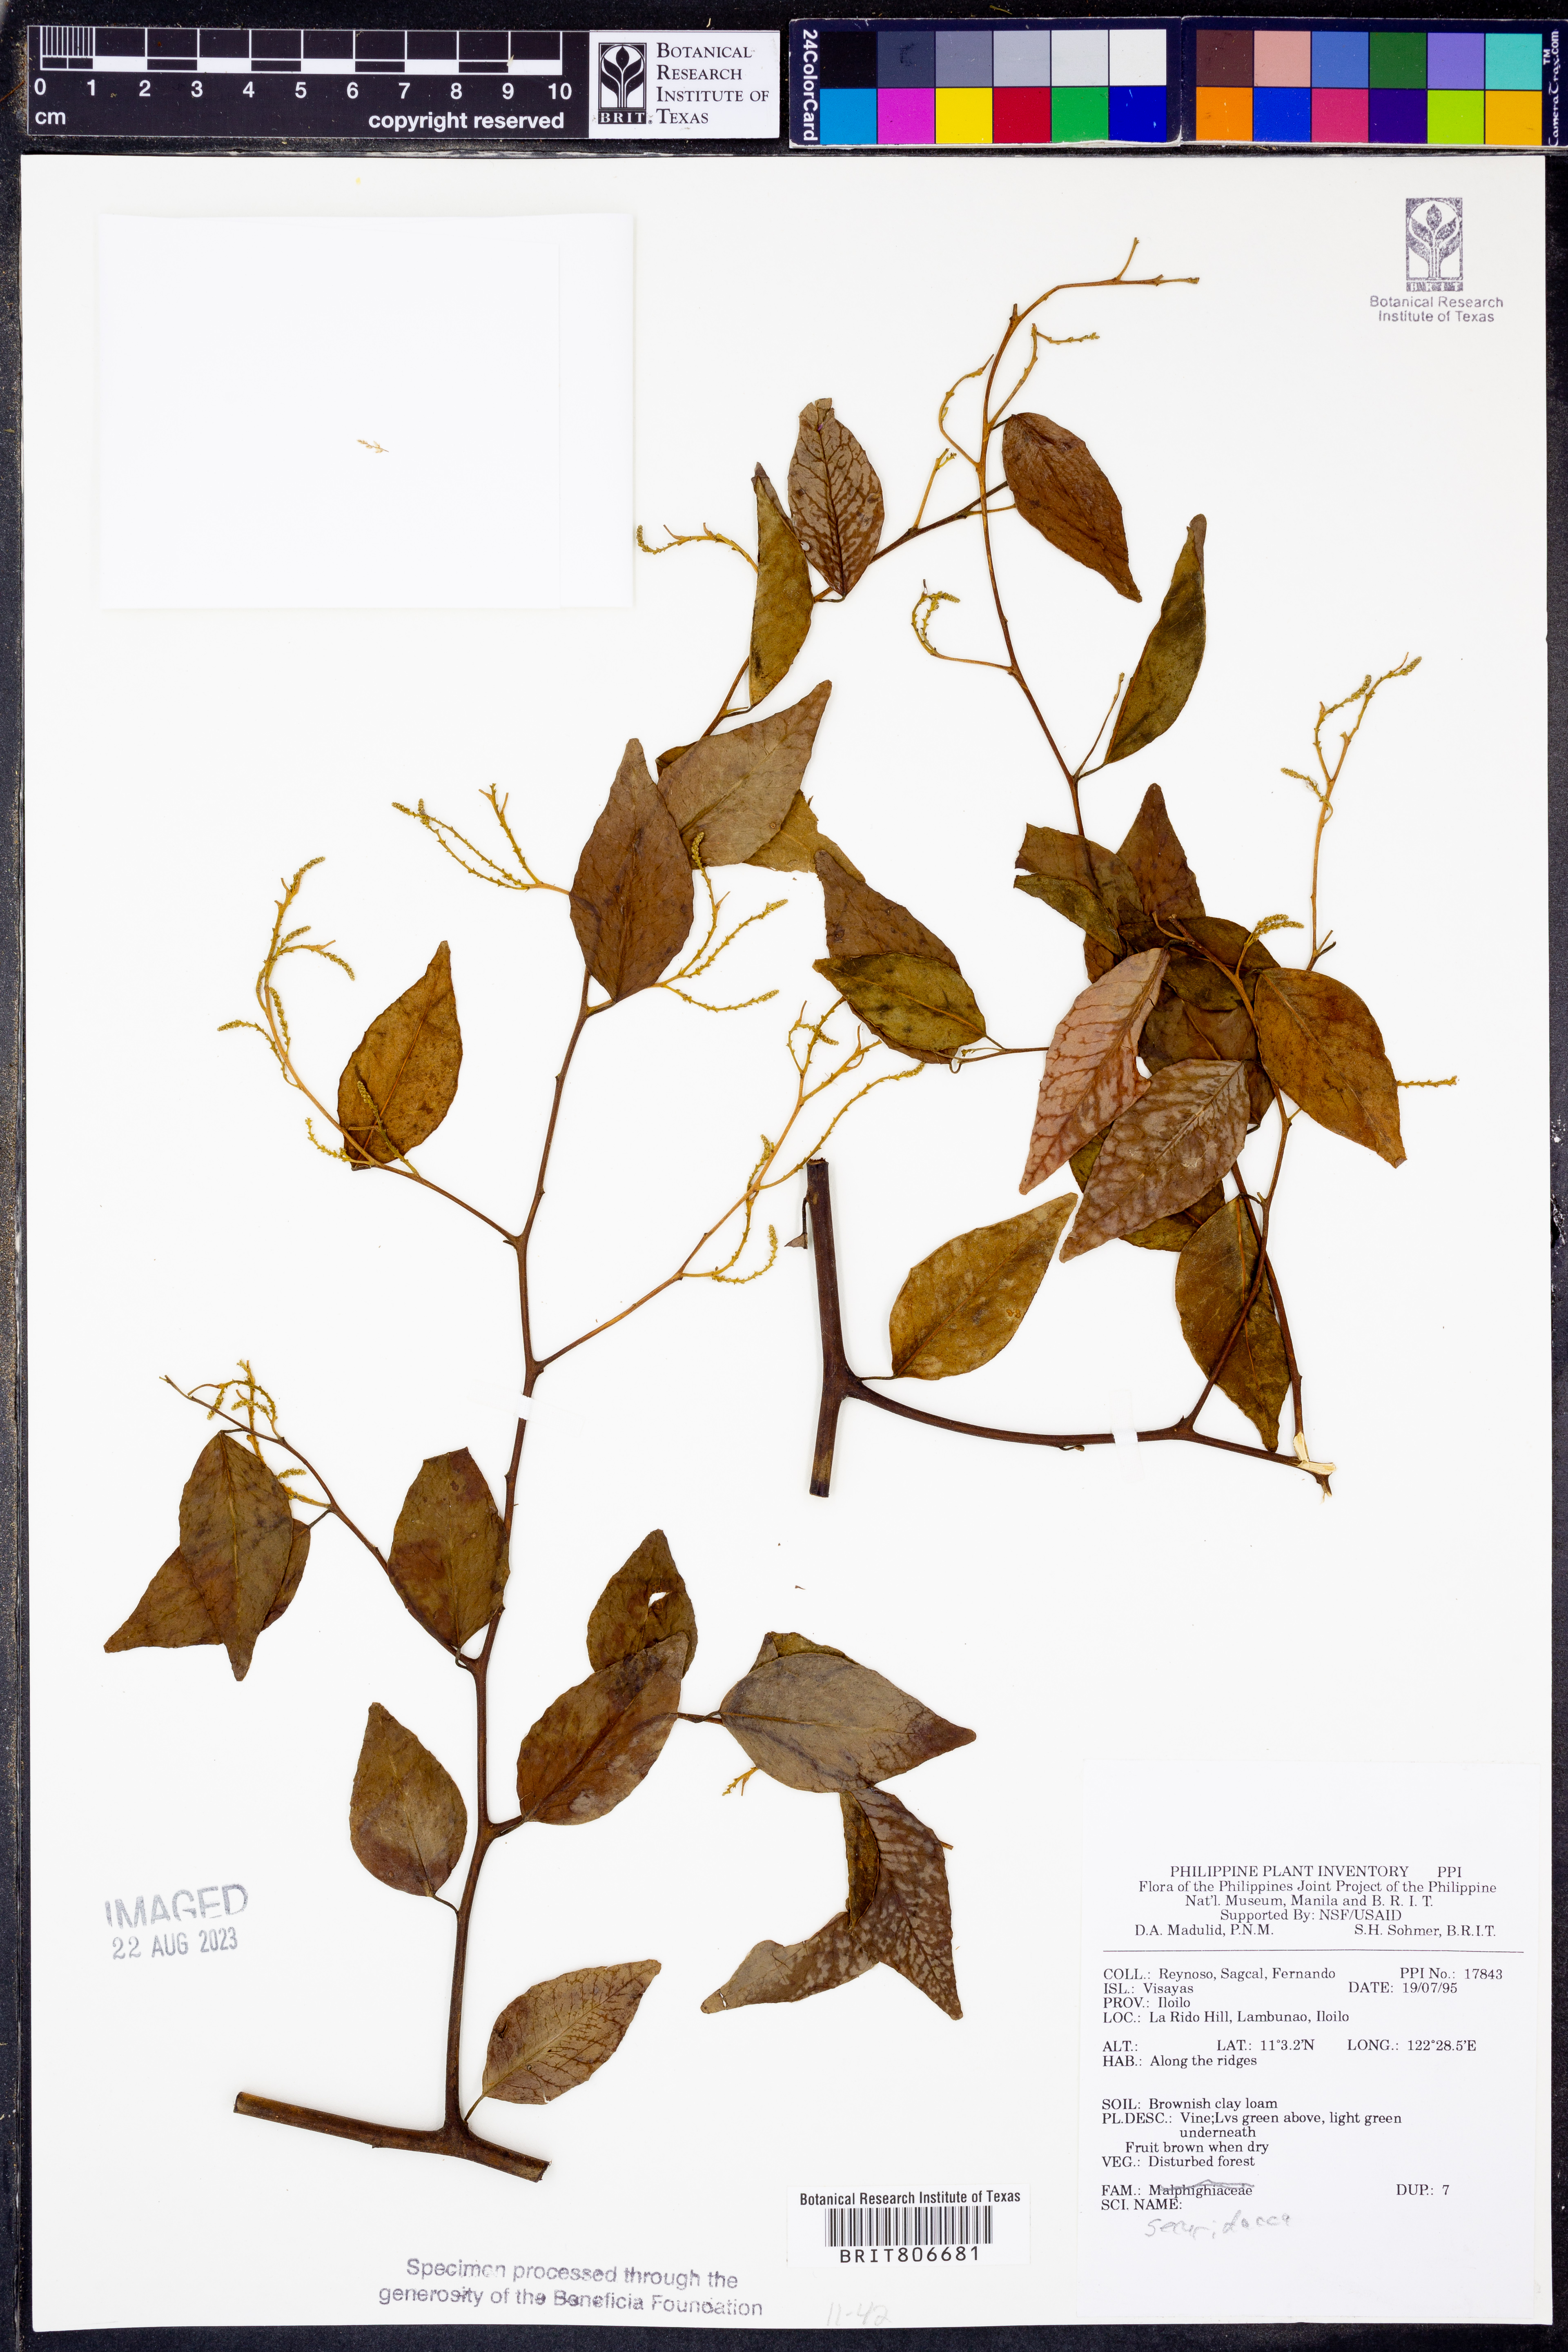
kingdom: Plantae
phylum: Tracheophyta
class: Magnoliopsida
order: Fabales
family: Polygalaceae
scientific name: Polygalaceae
